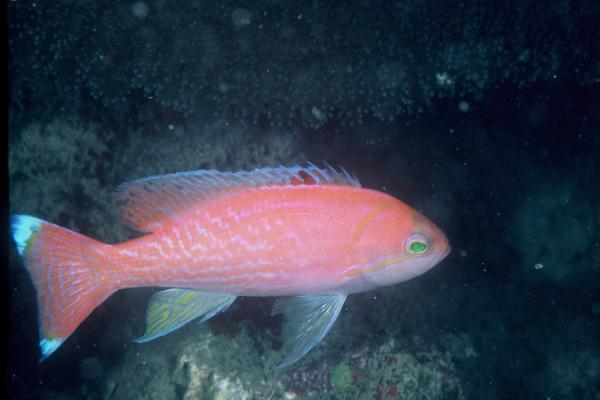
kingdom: Animalia
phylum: Chordata
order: Perciformes
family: Serranidae
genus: Pseudanthias
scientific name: Pseudanthias bimaculatus
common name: Two-spot basslet
